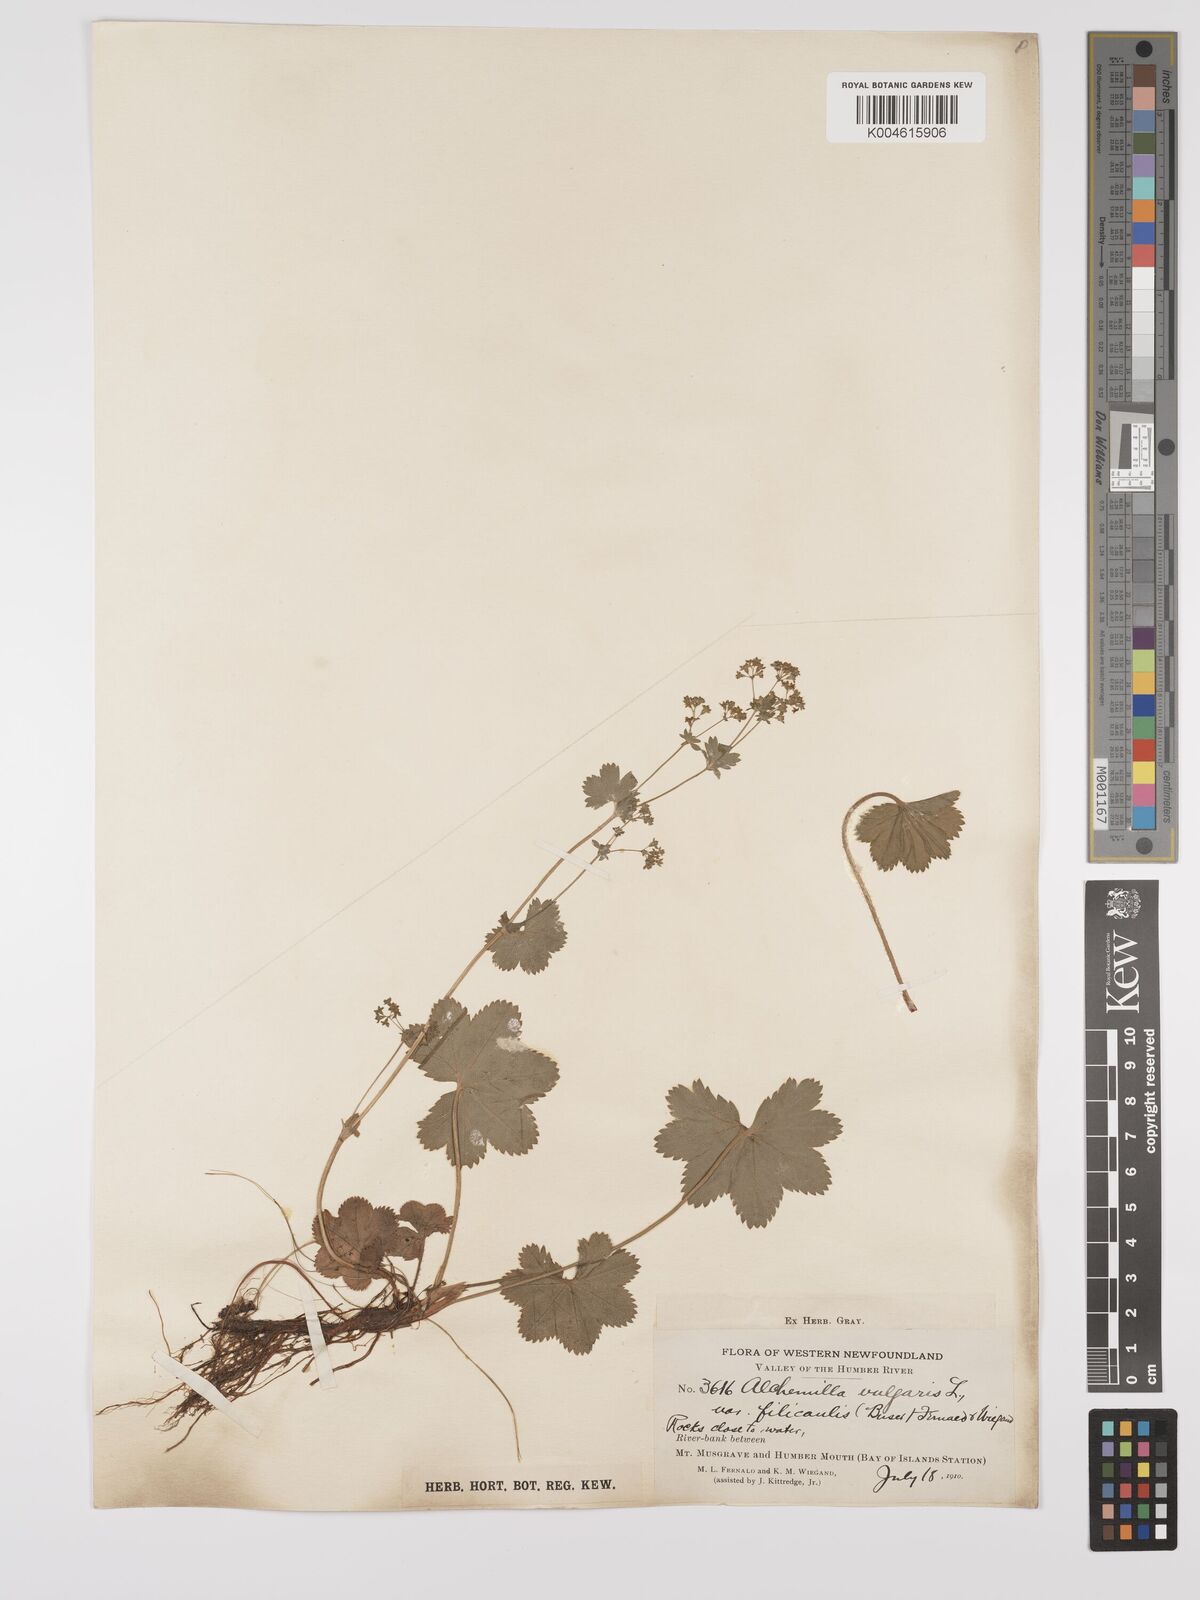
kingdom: Plantae
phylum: Tracheophyta
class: Magnoliopsida
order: Rosales
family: Rosaceae
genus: Alchemilla
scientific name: Alchemilla vulgaris
